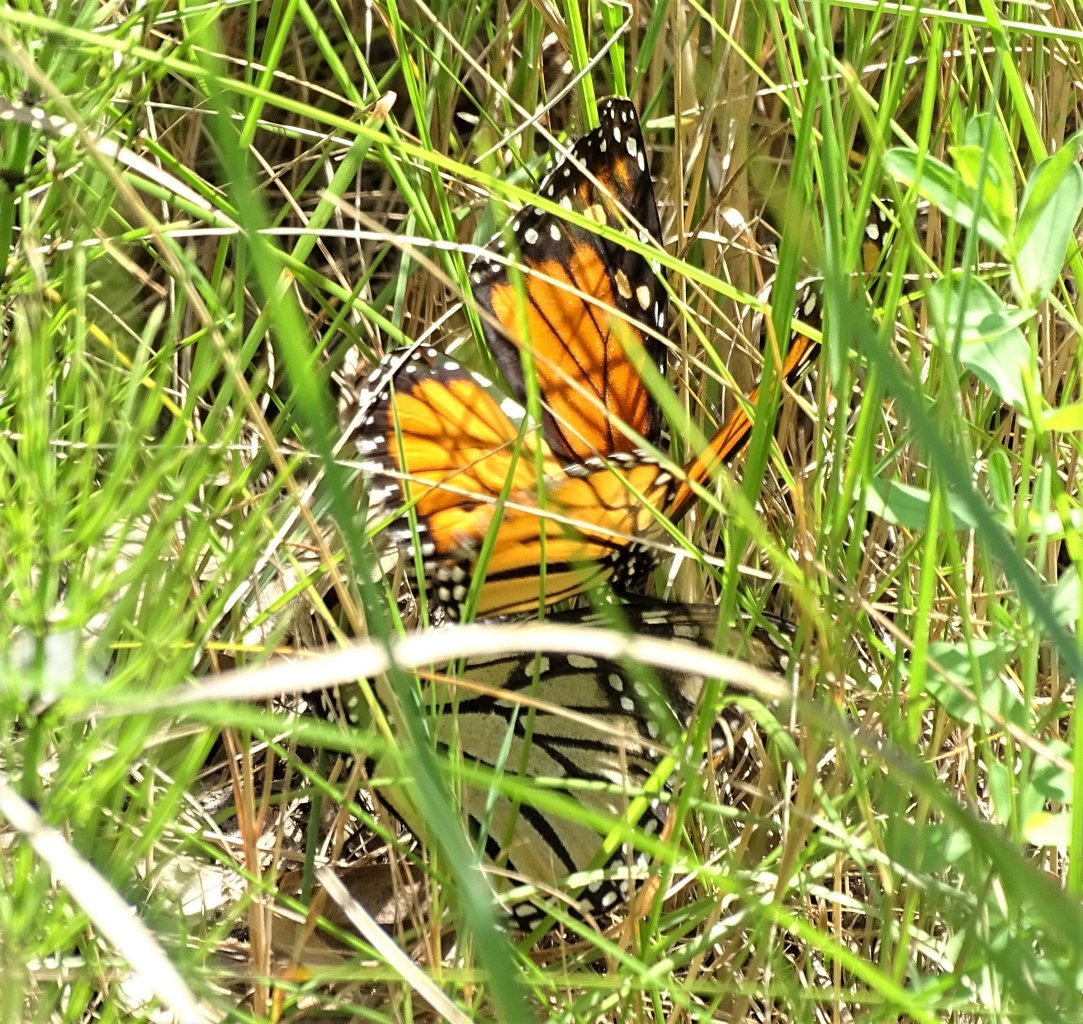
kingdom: Animalia
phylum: Arthropoda
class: Insecta
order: Lepidoptera
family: Nymphalidae
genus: Danaus
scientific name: Danaus plexippus
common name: Monarch
